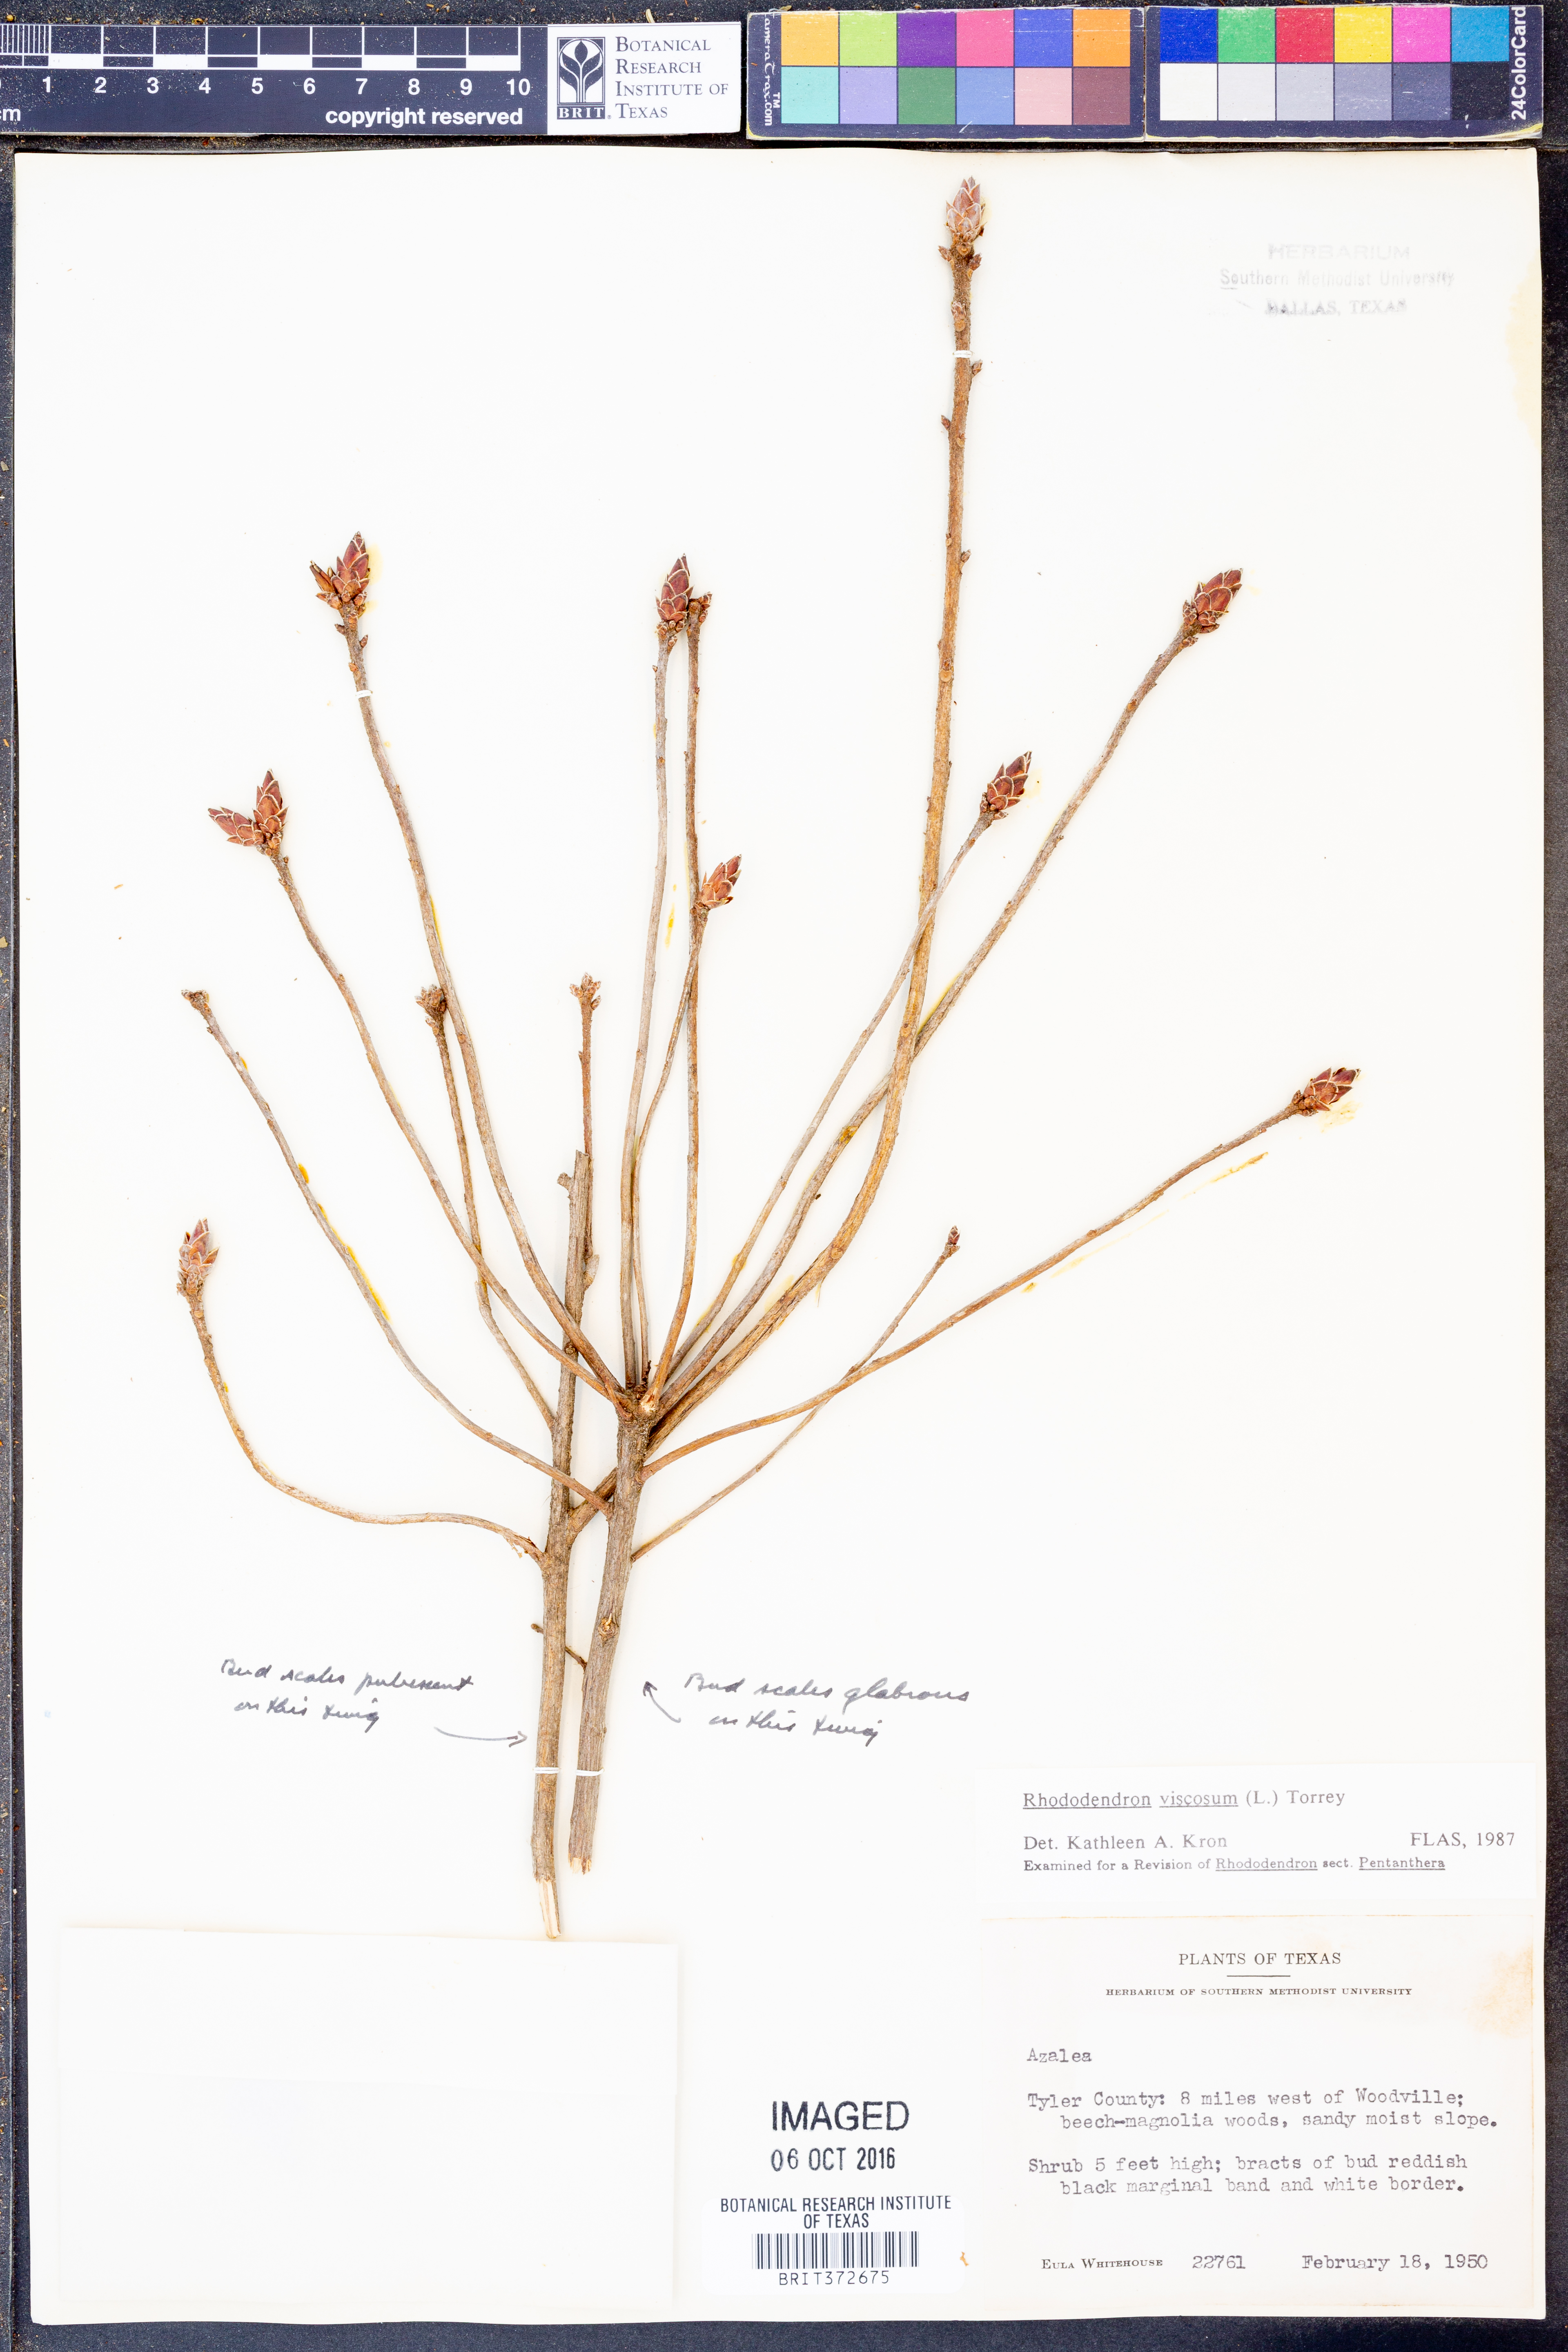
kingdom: Plantae
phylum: Tracheophyta
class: Magnoliopsida
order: Ericales
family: Ericaceae
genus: Rhododendron
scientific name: Rhododendron viscosum
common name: Clammy azalea
